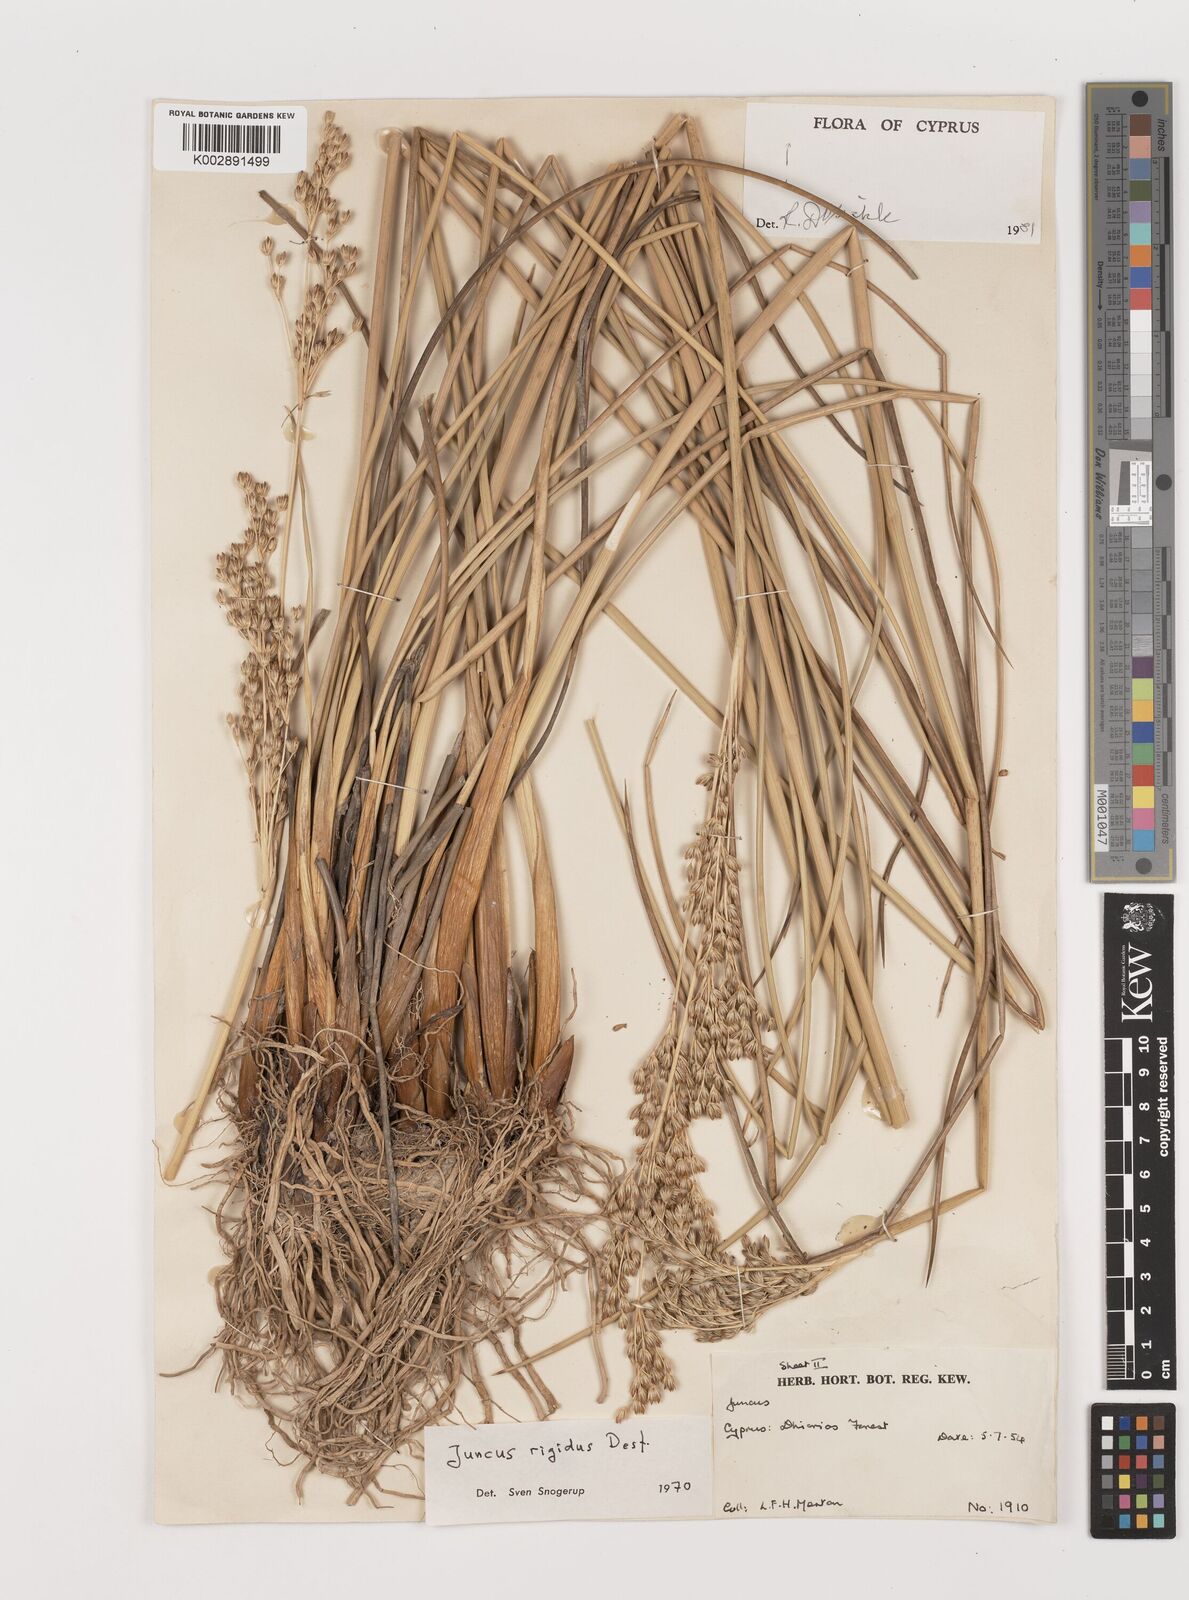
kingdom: Plantae
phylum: Tracheophyta
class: Liliopsida
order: Poales
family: Juncaceae
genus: Juncus
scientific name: Juncus rigidus
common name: Hard sea rush
